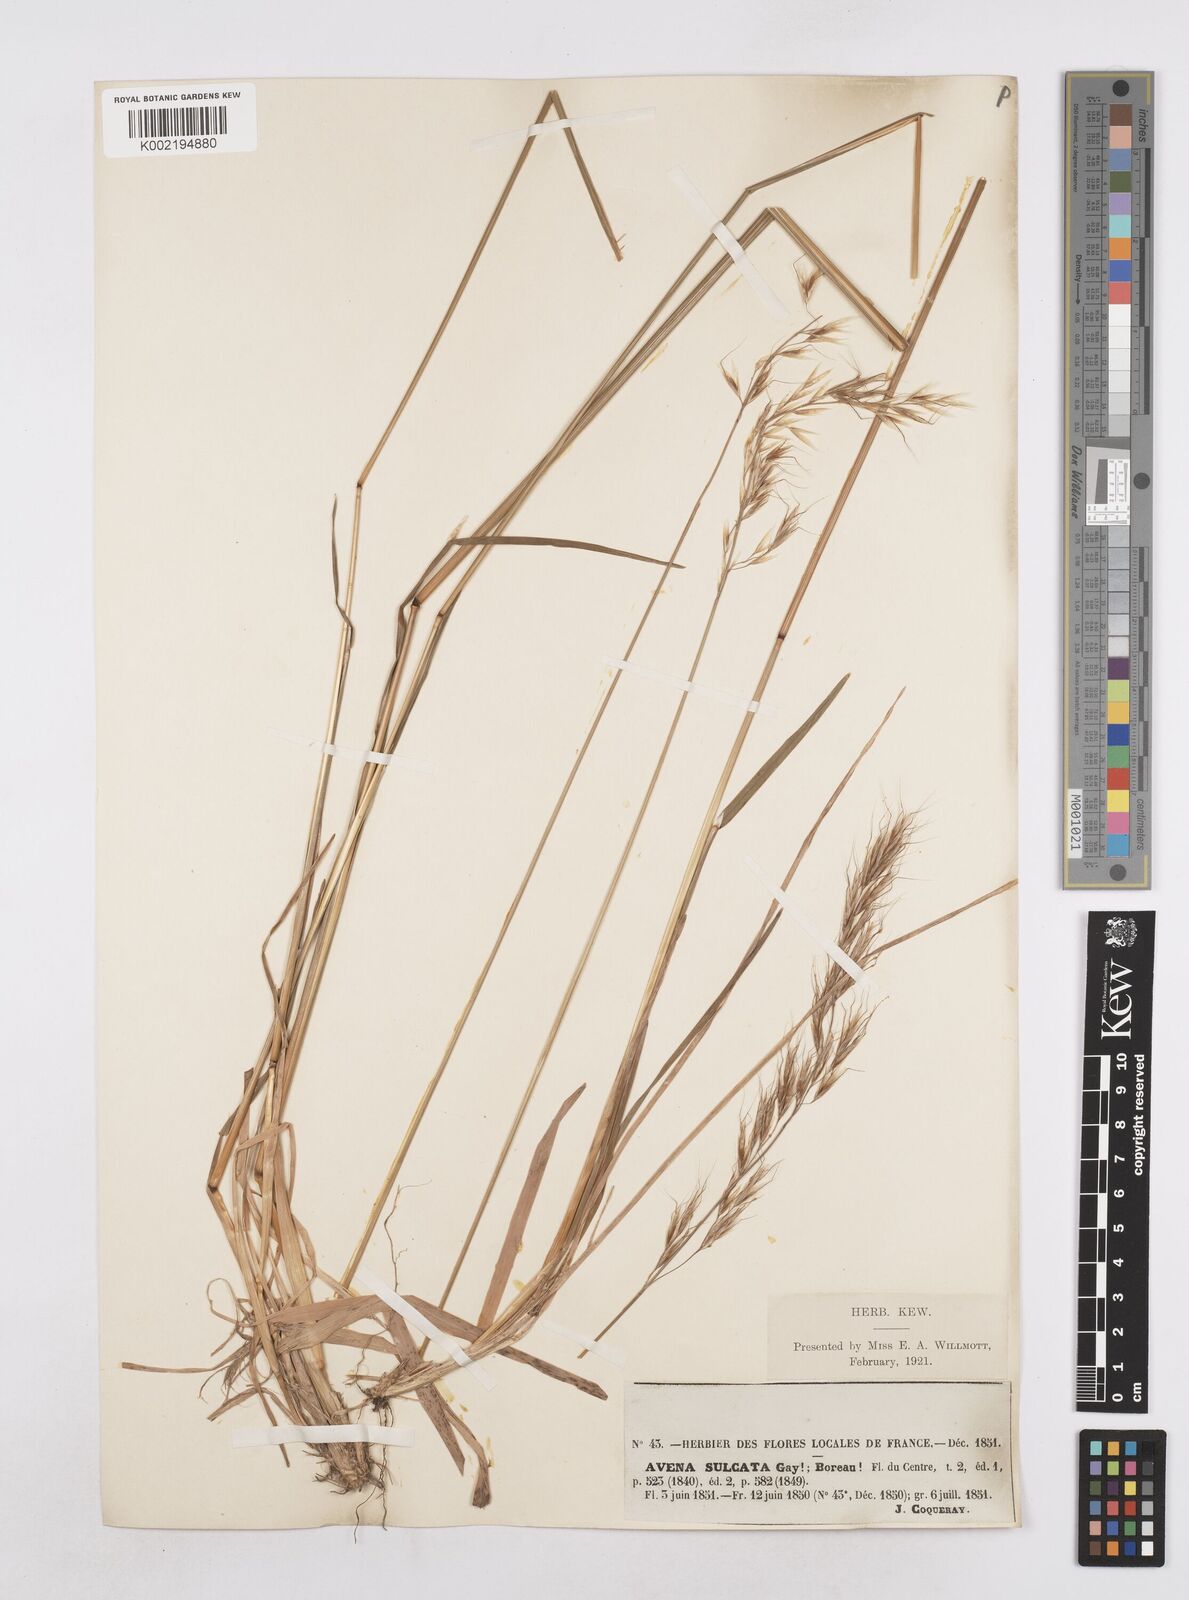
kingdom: Plantae
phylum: Tracheophyta
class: Liliopsida
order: Poales
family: Poaceae
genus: Helictotrichon
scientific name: Helictotrichon
